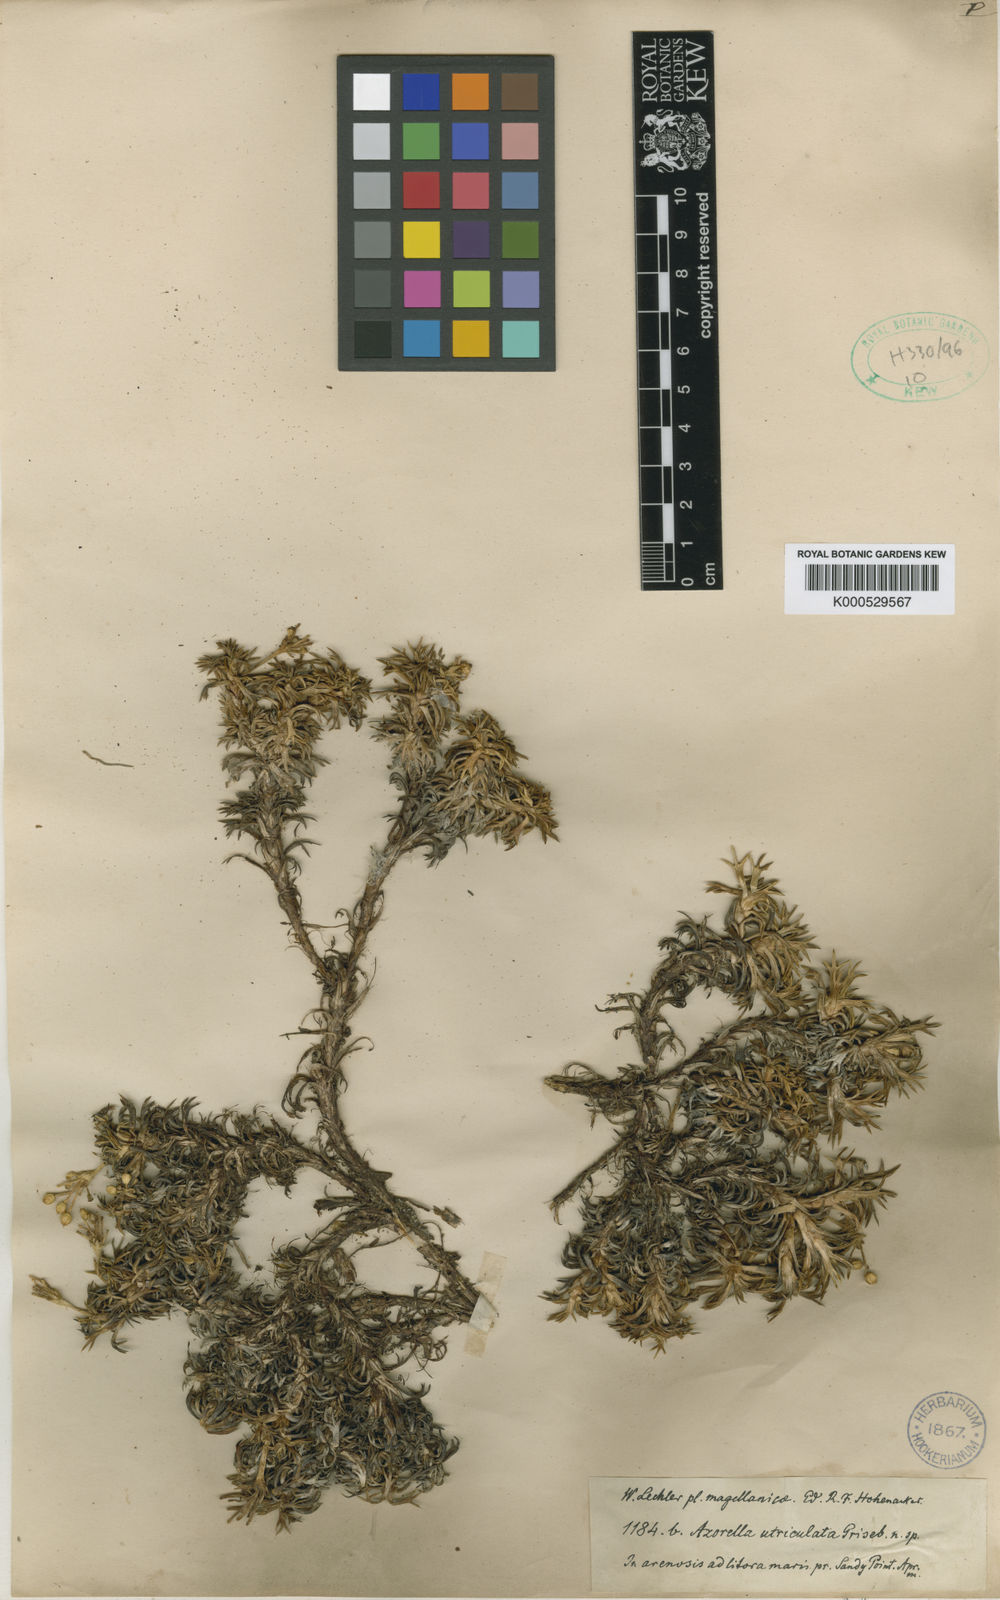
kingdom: Plantae
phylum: Tracheophyta
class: Magnoliopsida
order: Apiales
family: Apiaceae
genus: Azorella
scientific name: Azorella trifurcata
